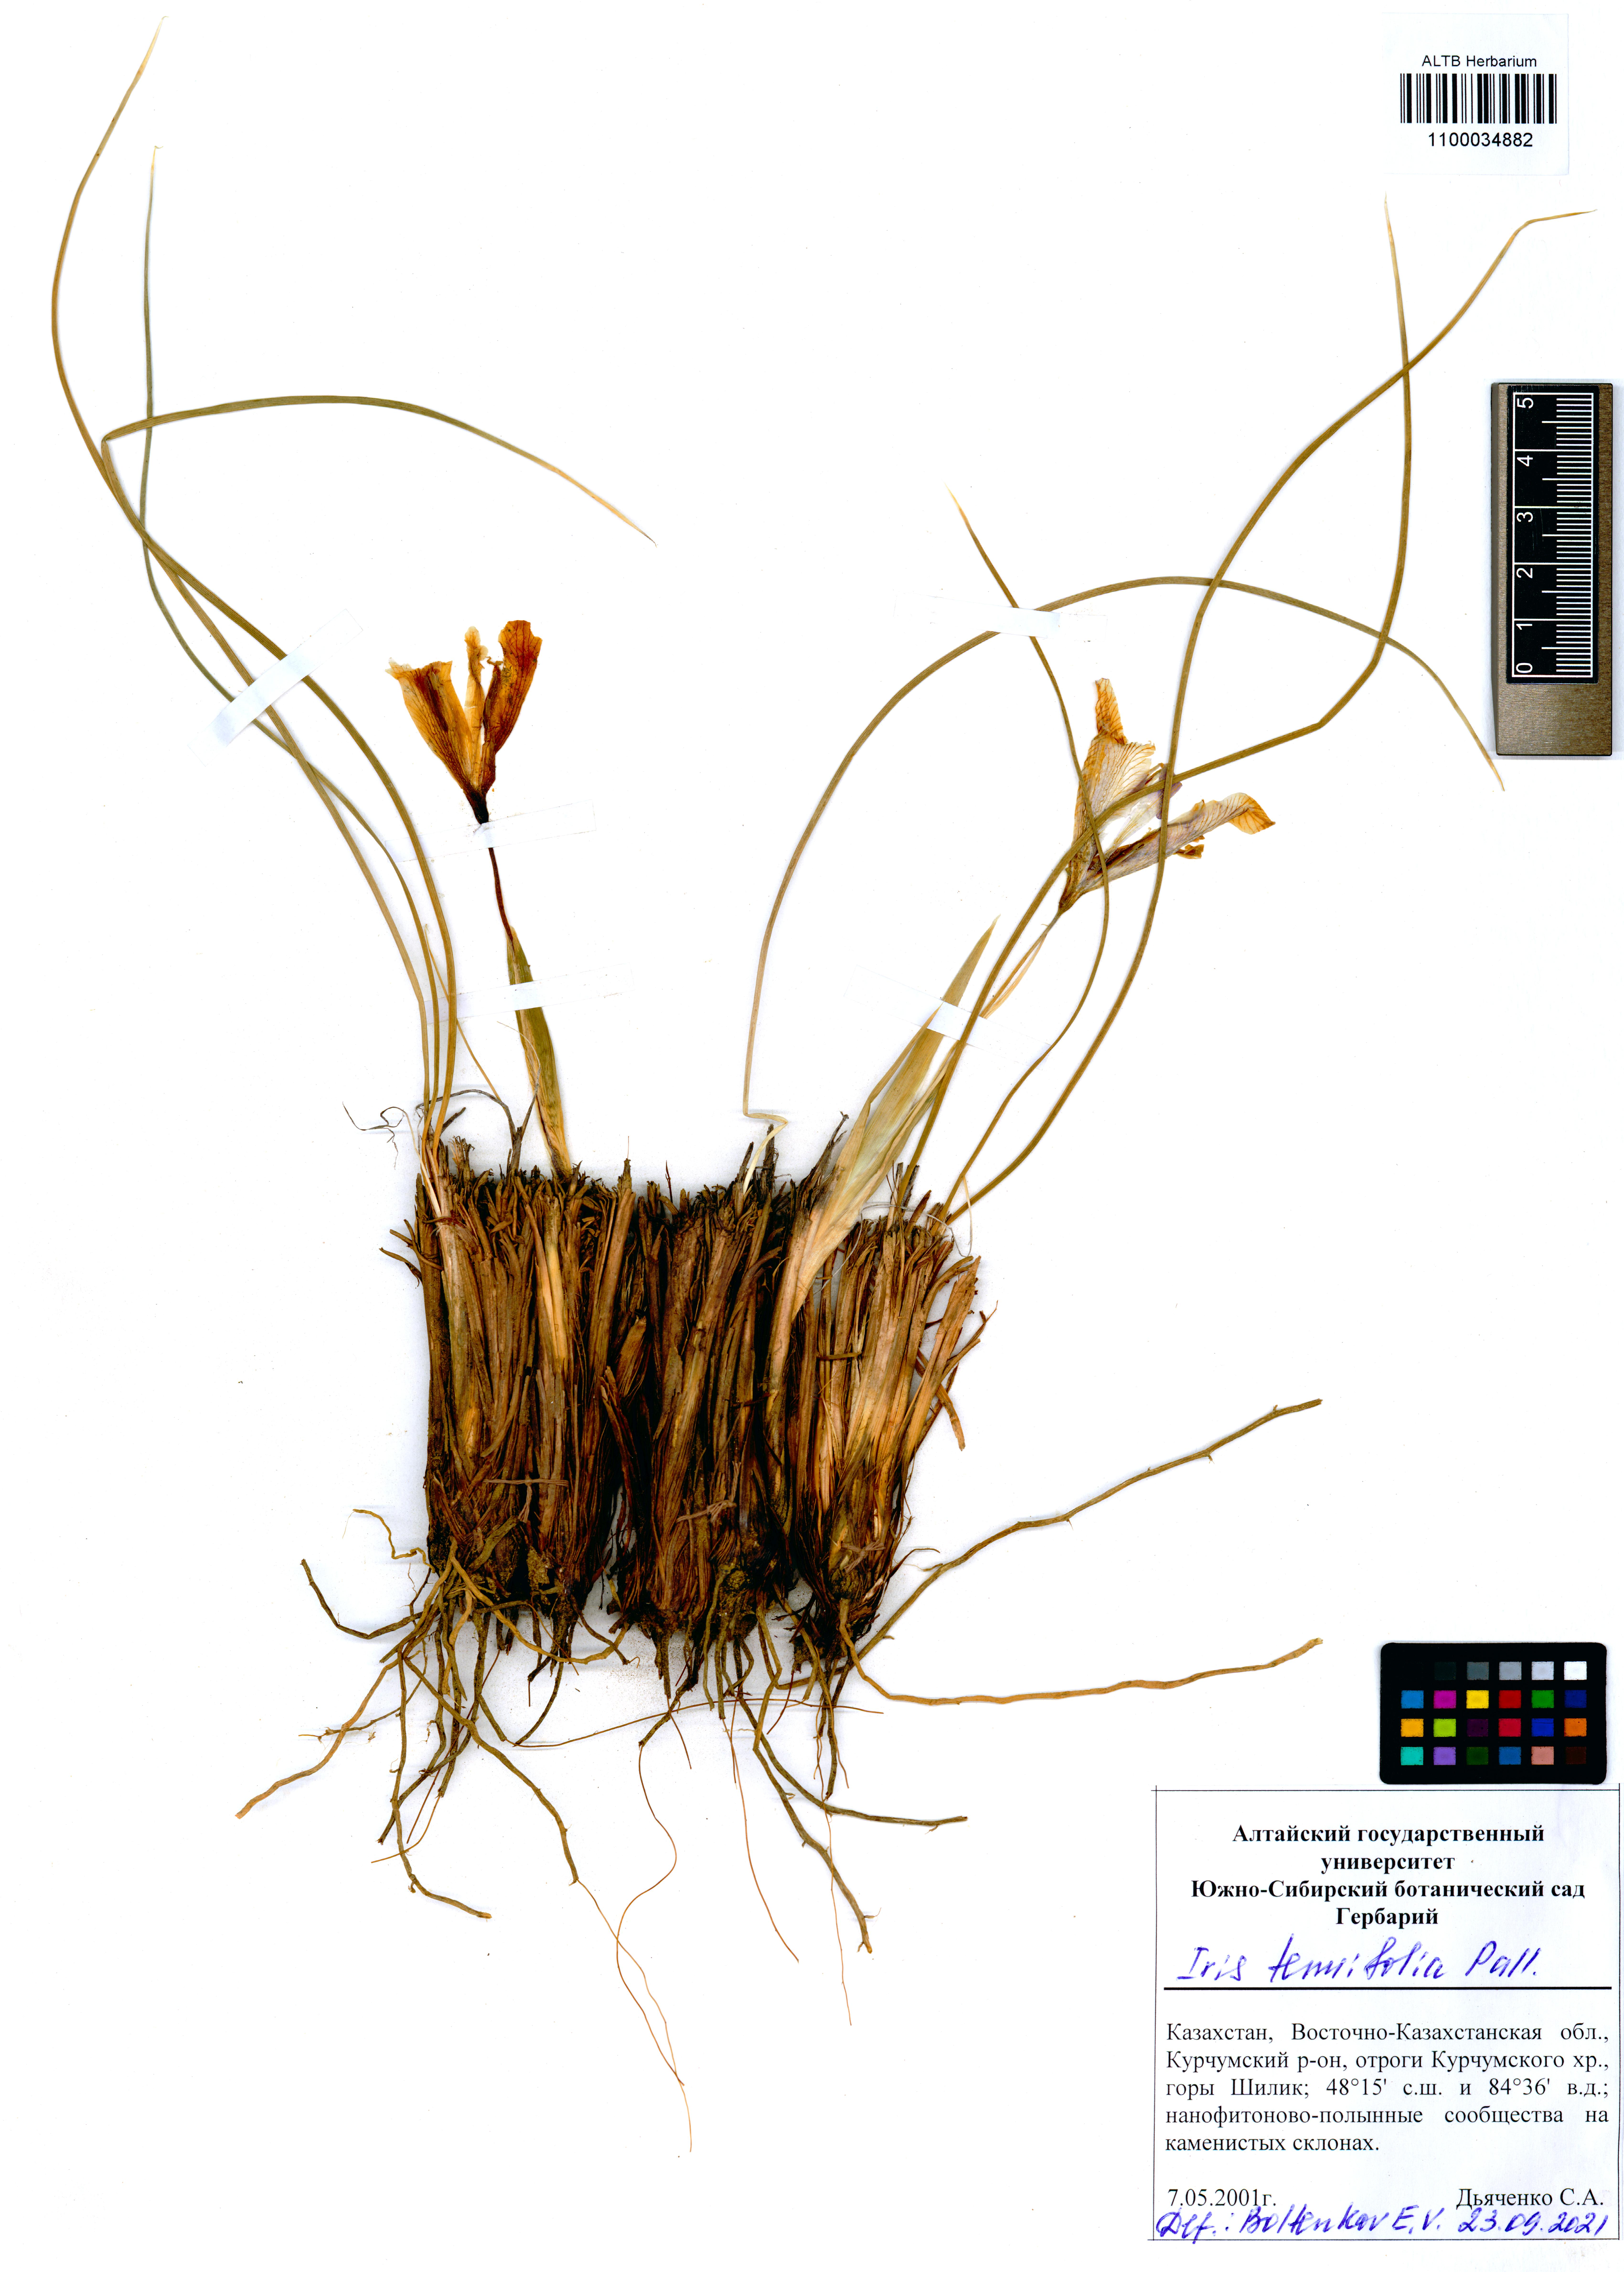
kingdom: Plantae
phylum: Tracheophyta
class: Liliopsida
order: Asparagales
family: Iridaceae
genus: Iris
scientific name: Iris tenuifolia
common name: Slender-leaf iris
